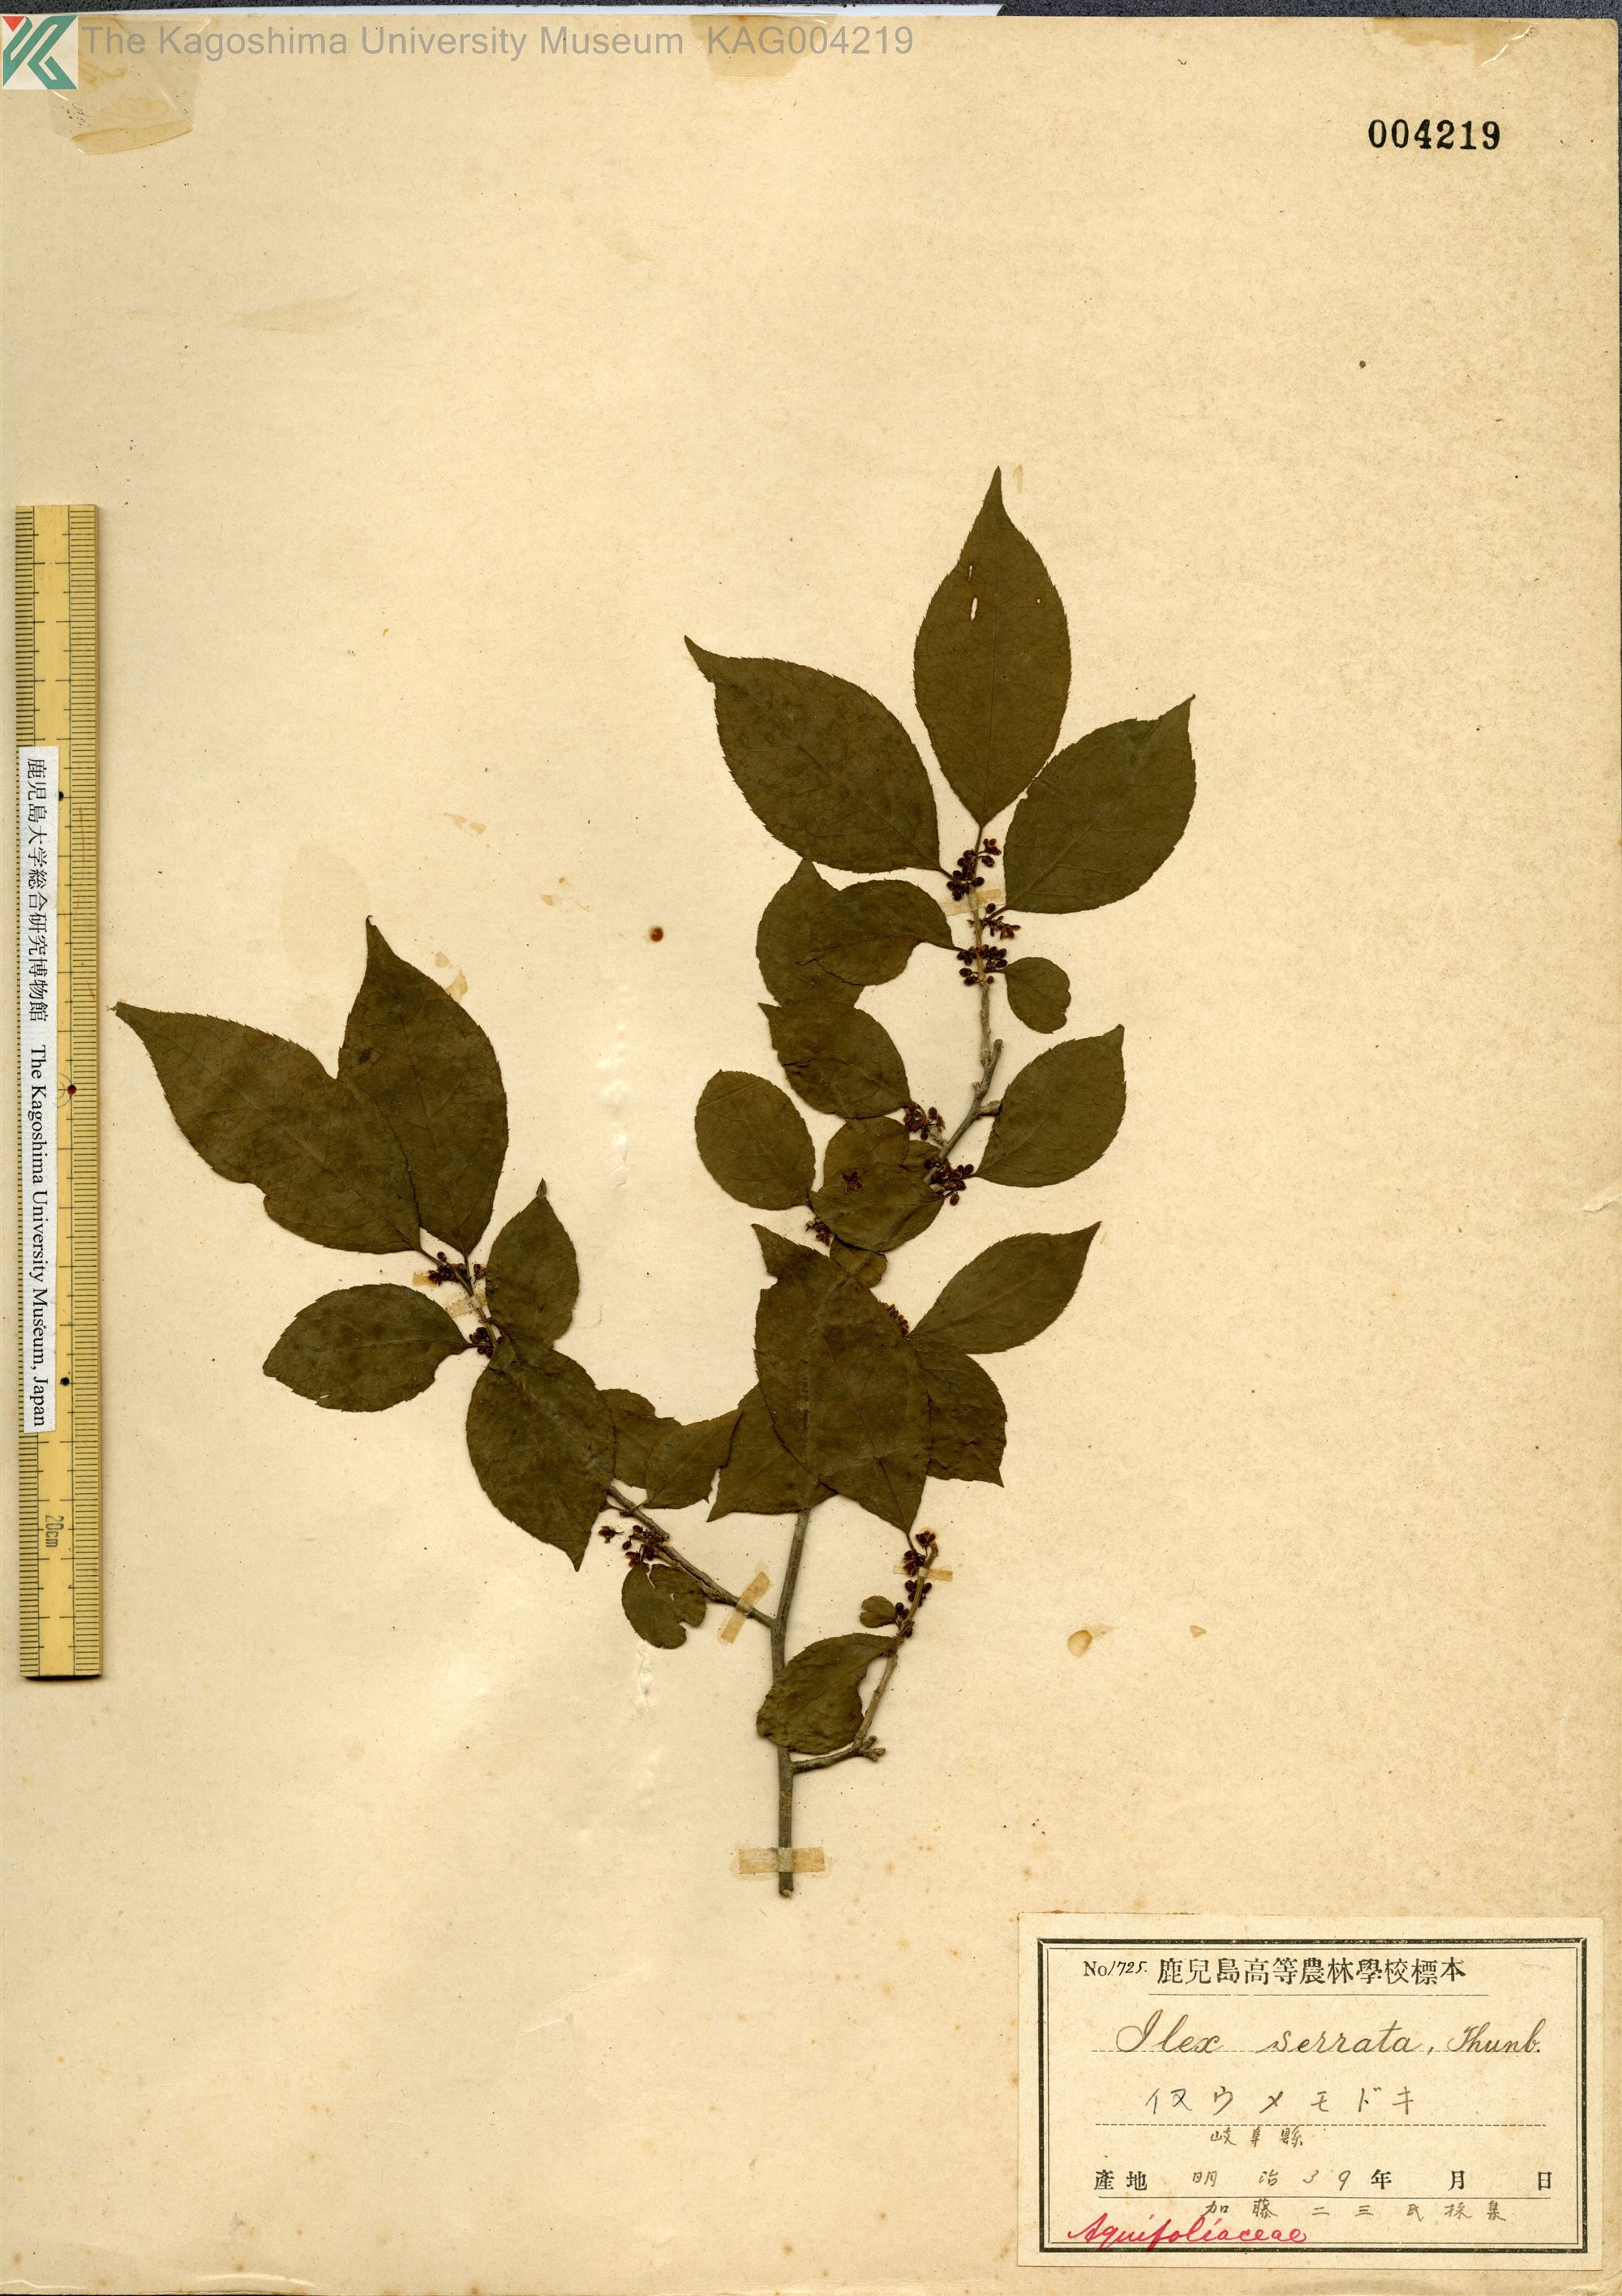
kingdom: Plantae
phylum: Tracheophyta
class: Magnoliopsida
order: Aquifoliales
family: Aquifoliaceae
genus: Ilex
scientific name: Ilex serrata
